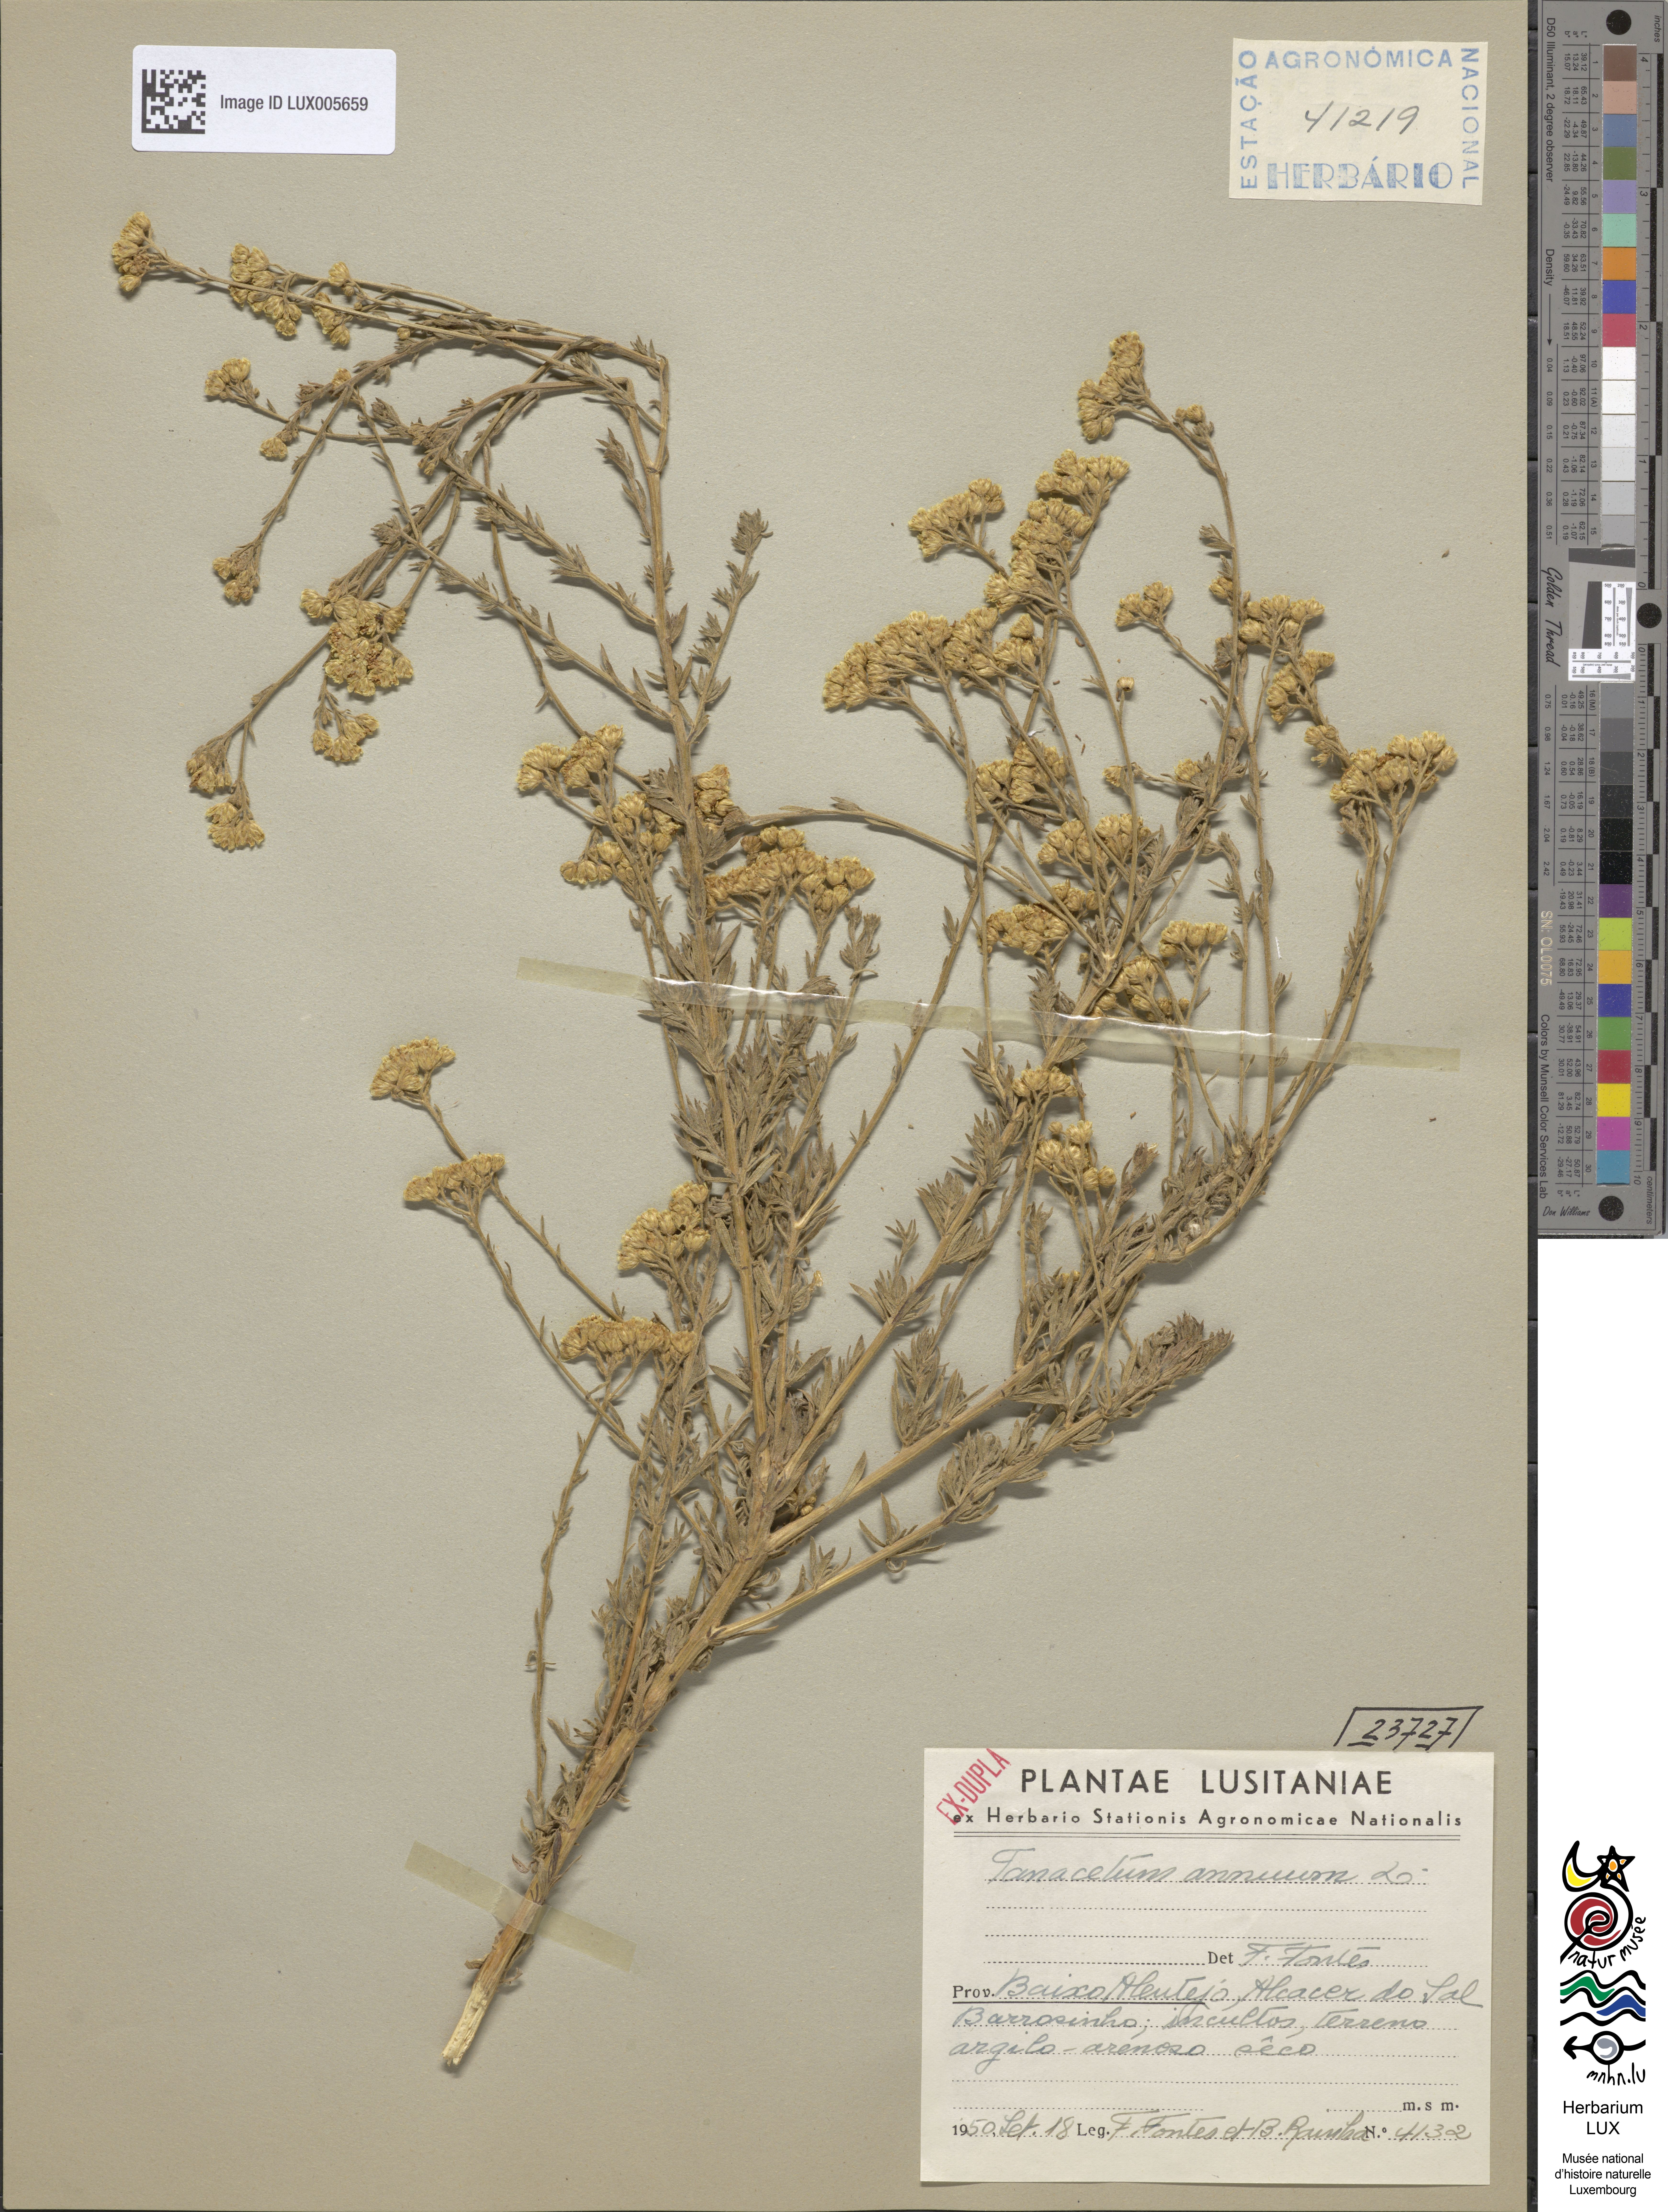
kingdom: Plantae
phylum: Tracheophyta
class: Magnoliopsida
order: Asterales
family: Asteraceae
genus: Vogtia
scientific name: Vogtia annua
